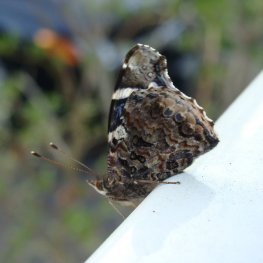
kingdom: Animalia
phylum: Arthropoda
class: Insecta
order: Lepidoptera
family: Nymphalidae
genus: Vanessa
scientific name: Vanessa atalanta
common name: Red Admiral
